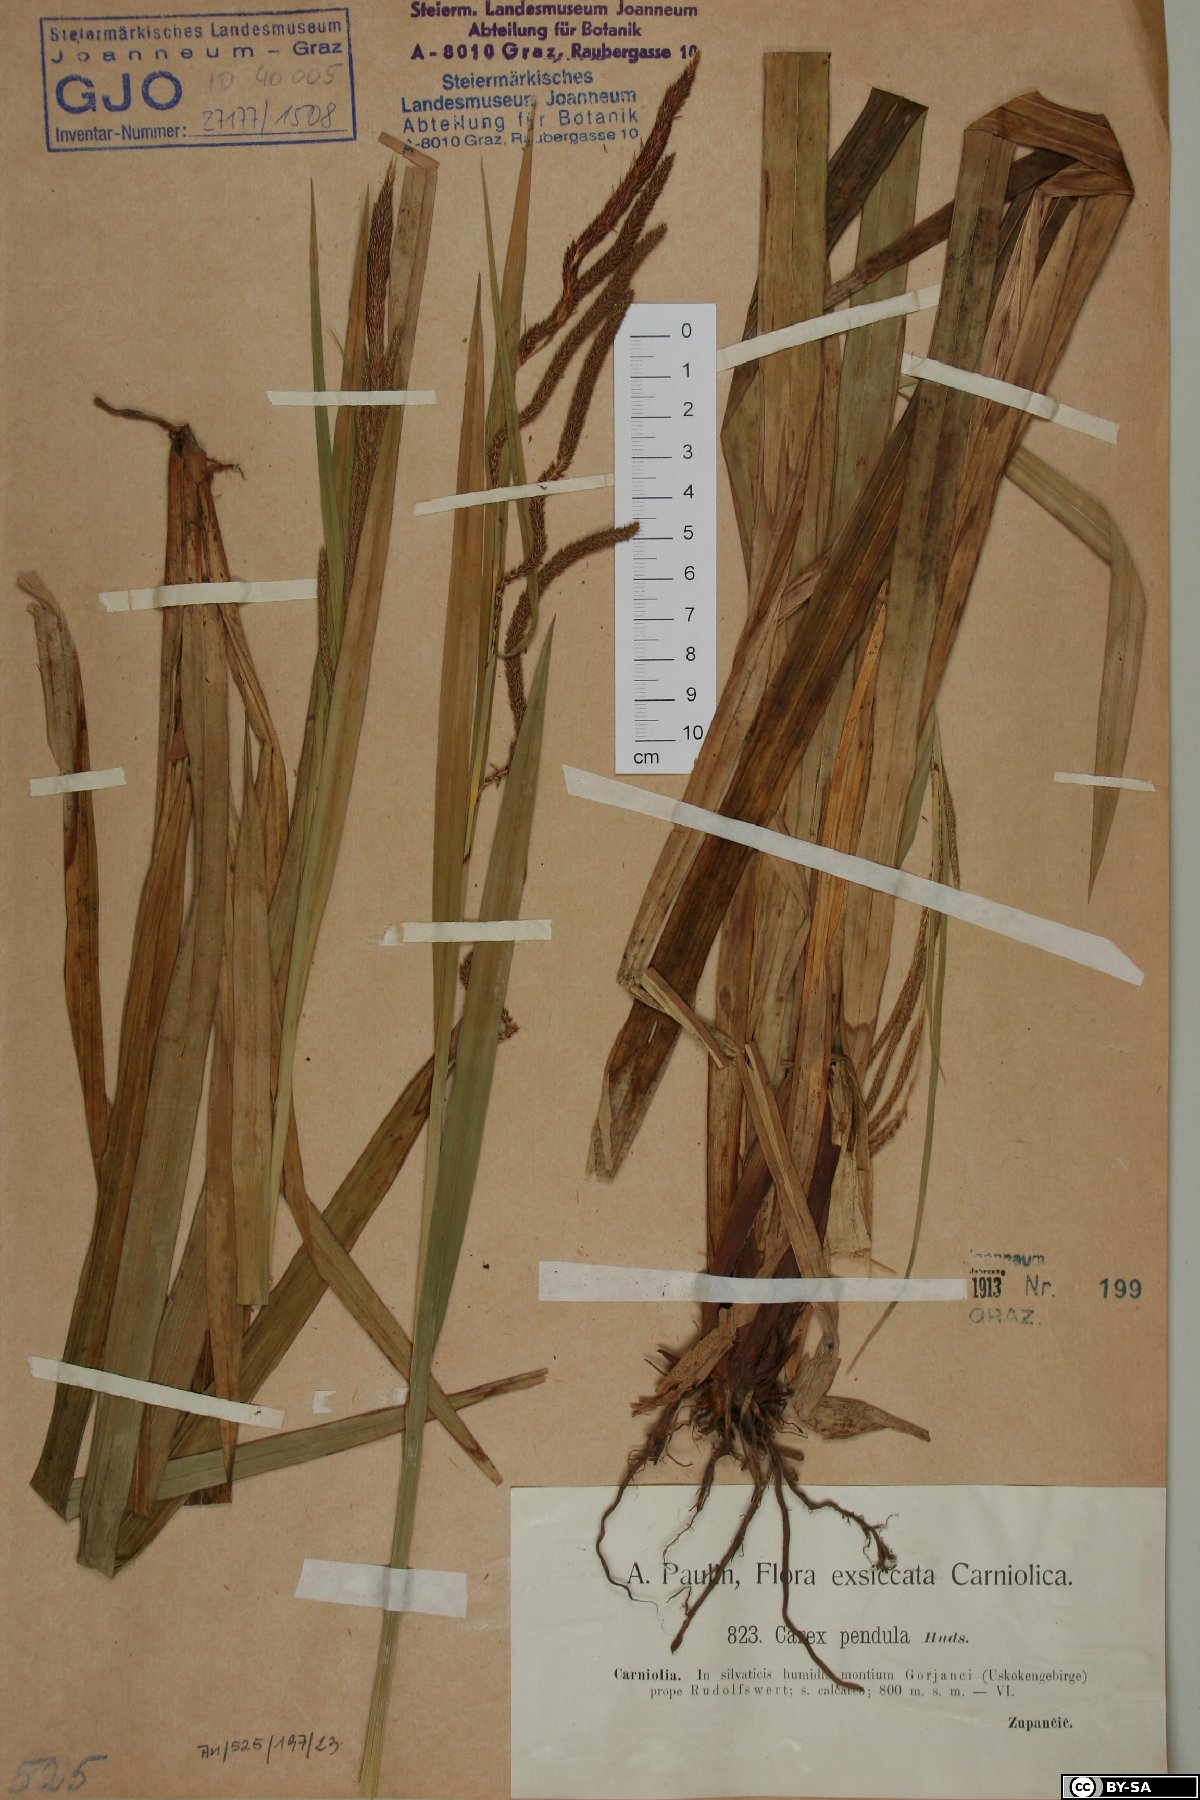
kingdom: Plantae
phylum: Tracheophyta
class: Liliopsida
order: Poales
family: Cyperaceae
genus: Carex
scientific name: Carex pendula
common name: Pendulous sedge
